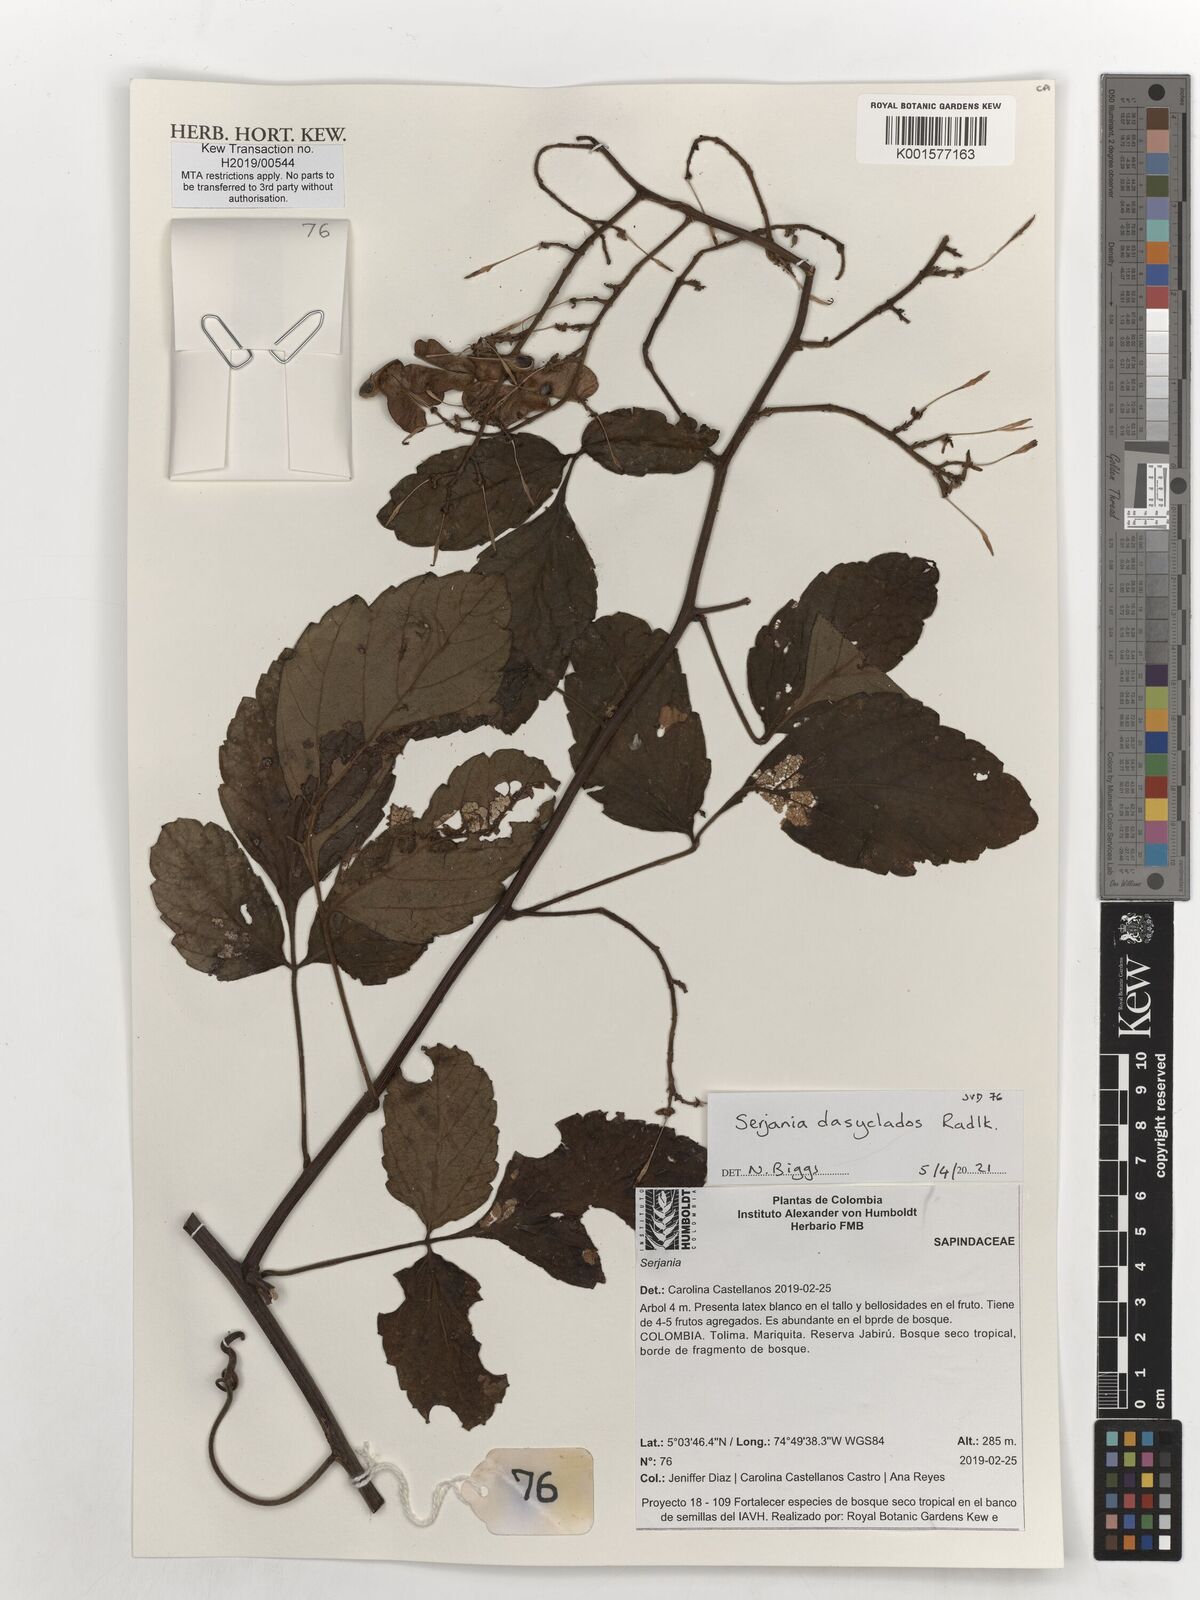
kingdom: Plantae
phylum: Tracheophyta
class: Magnoliopsida
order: Sapindales
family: Sapindaceae
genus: Serjania
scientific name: Serjania dasyclados
